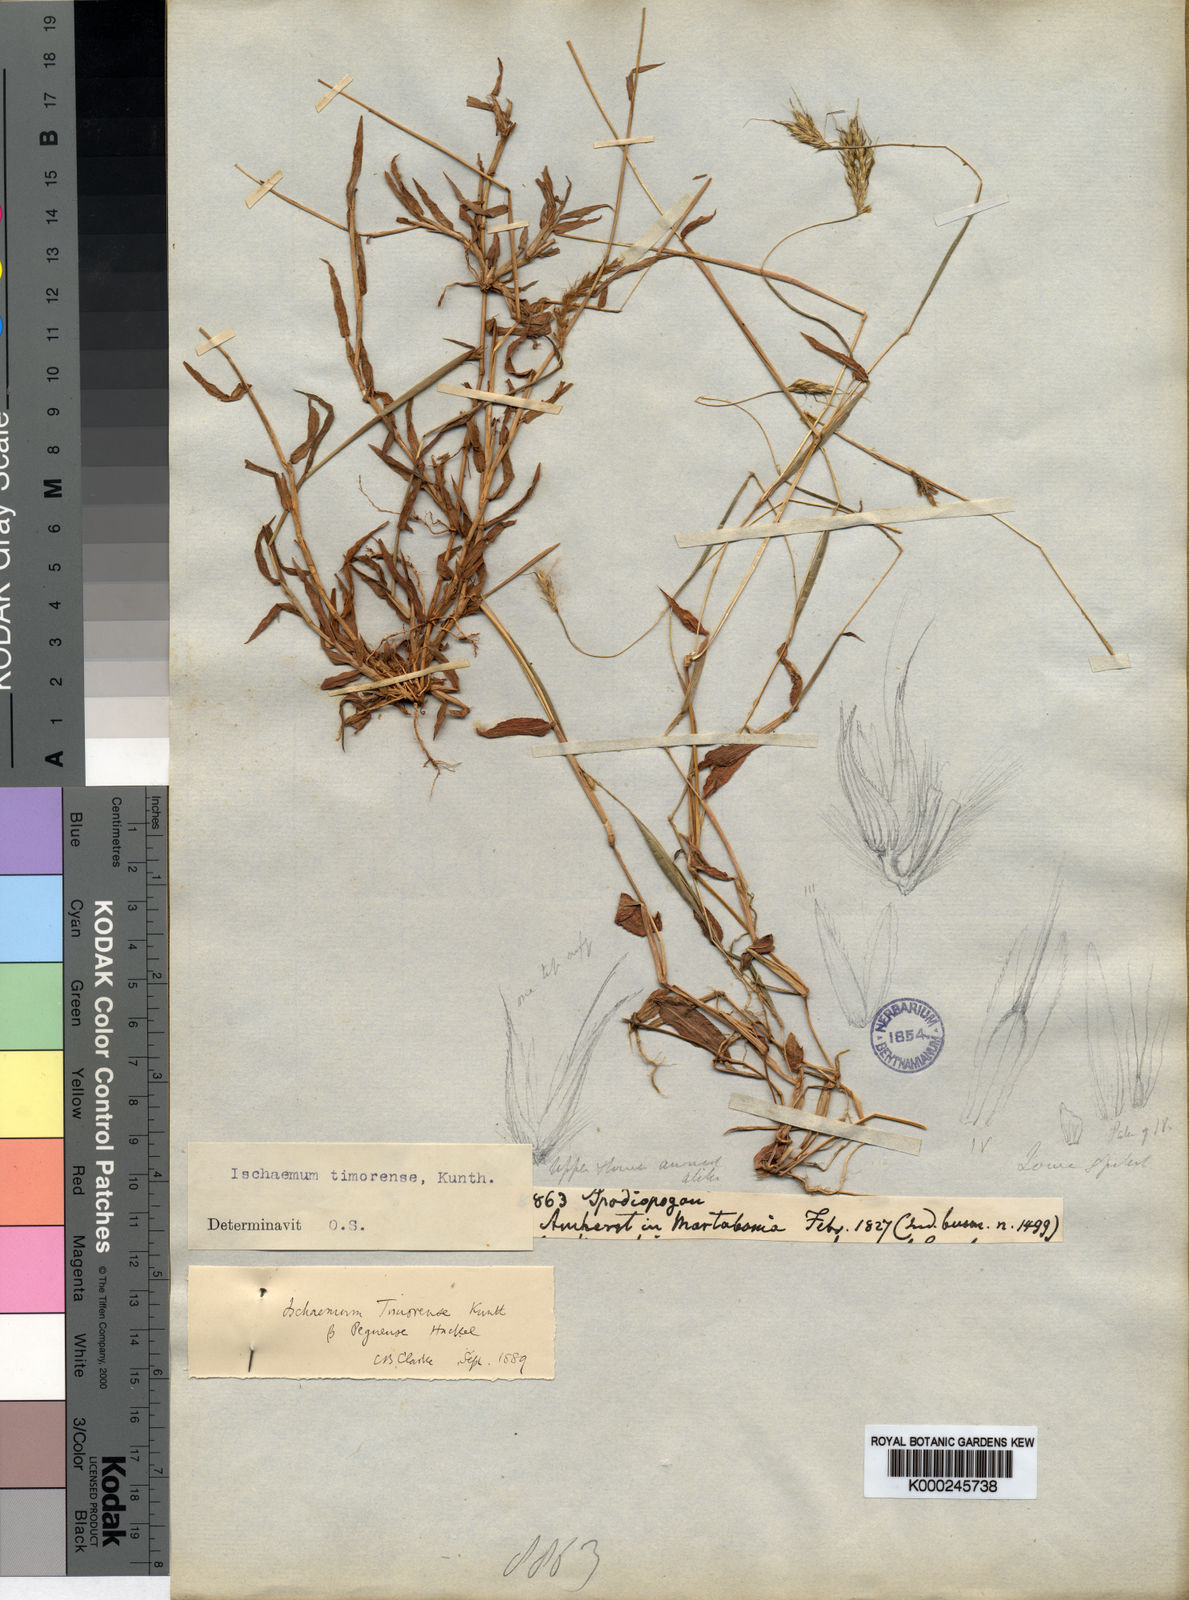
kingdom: Plantae
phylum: Tracheophyta
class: Liliopsida
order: Poales
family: Poaceae
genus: Ischaemum
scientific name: Ischaemum timorense
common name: Stalkleaf murainagrass
